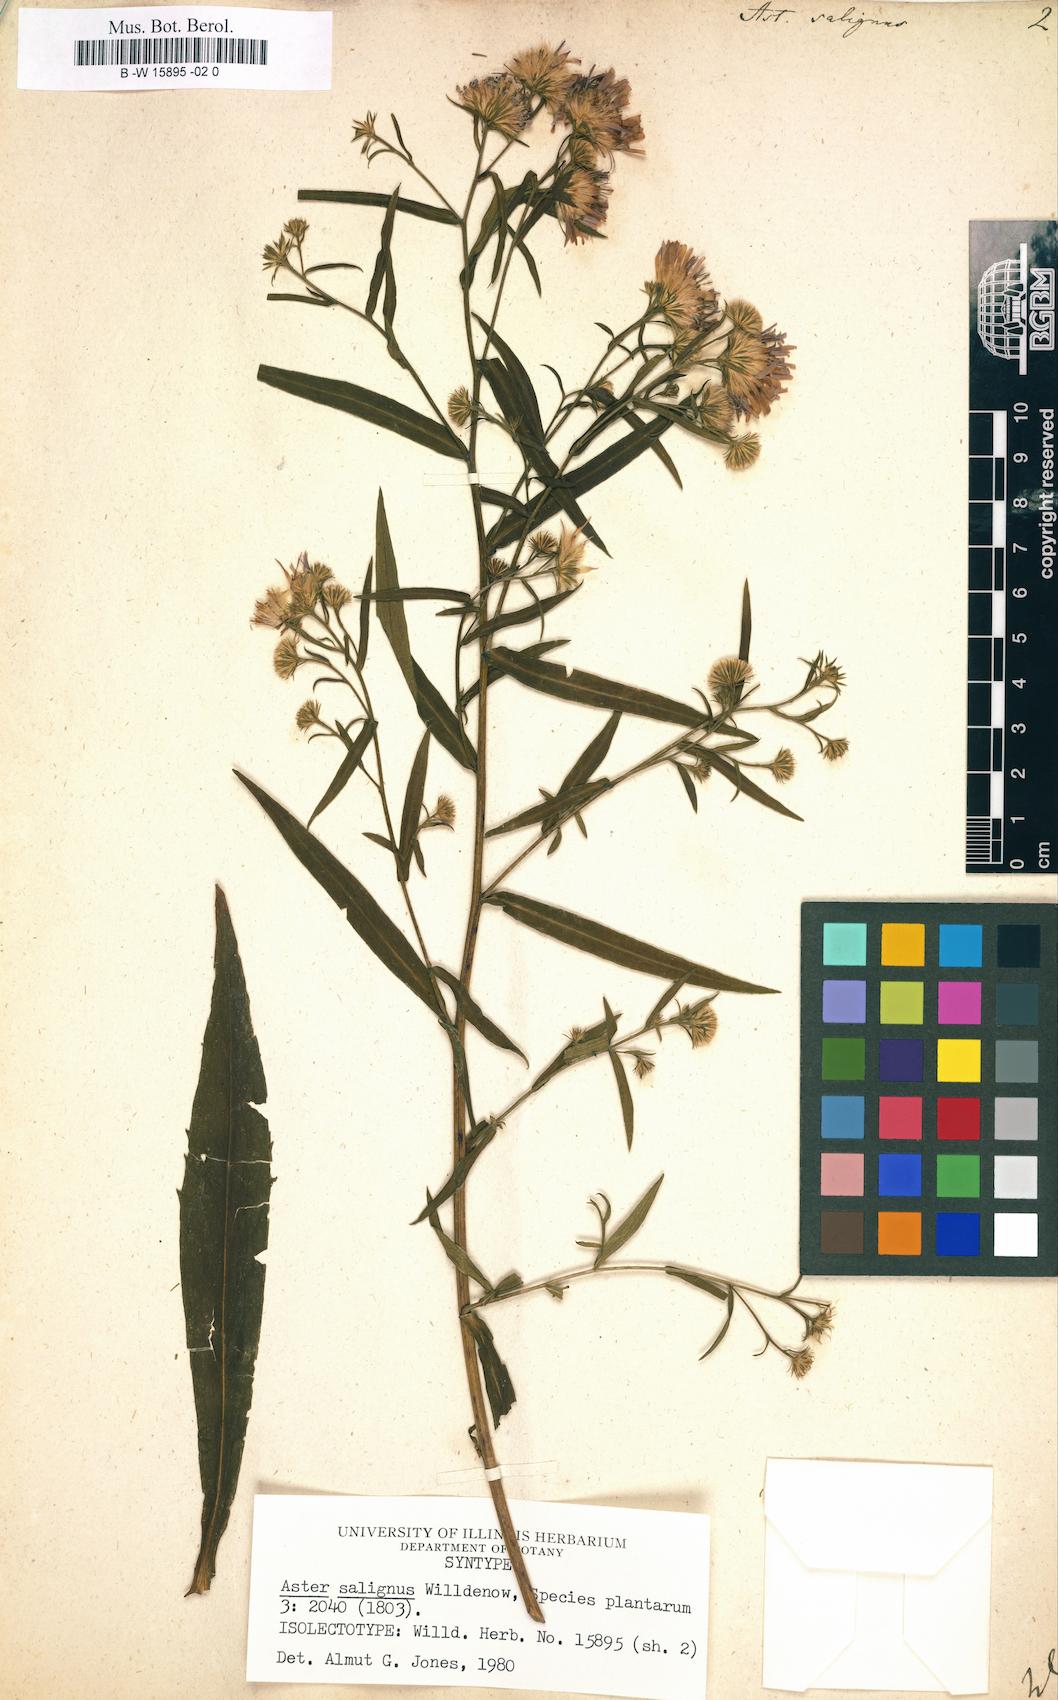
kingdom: Plantae
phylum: Tracheophyta
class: Magnoliopsida
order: Asterales
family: Asteraceae
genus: Symphyotrichum
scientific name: Symphyotrichum salignum
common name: Common michaelmas daisy
